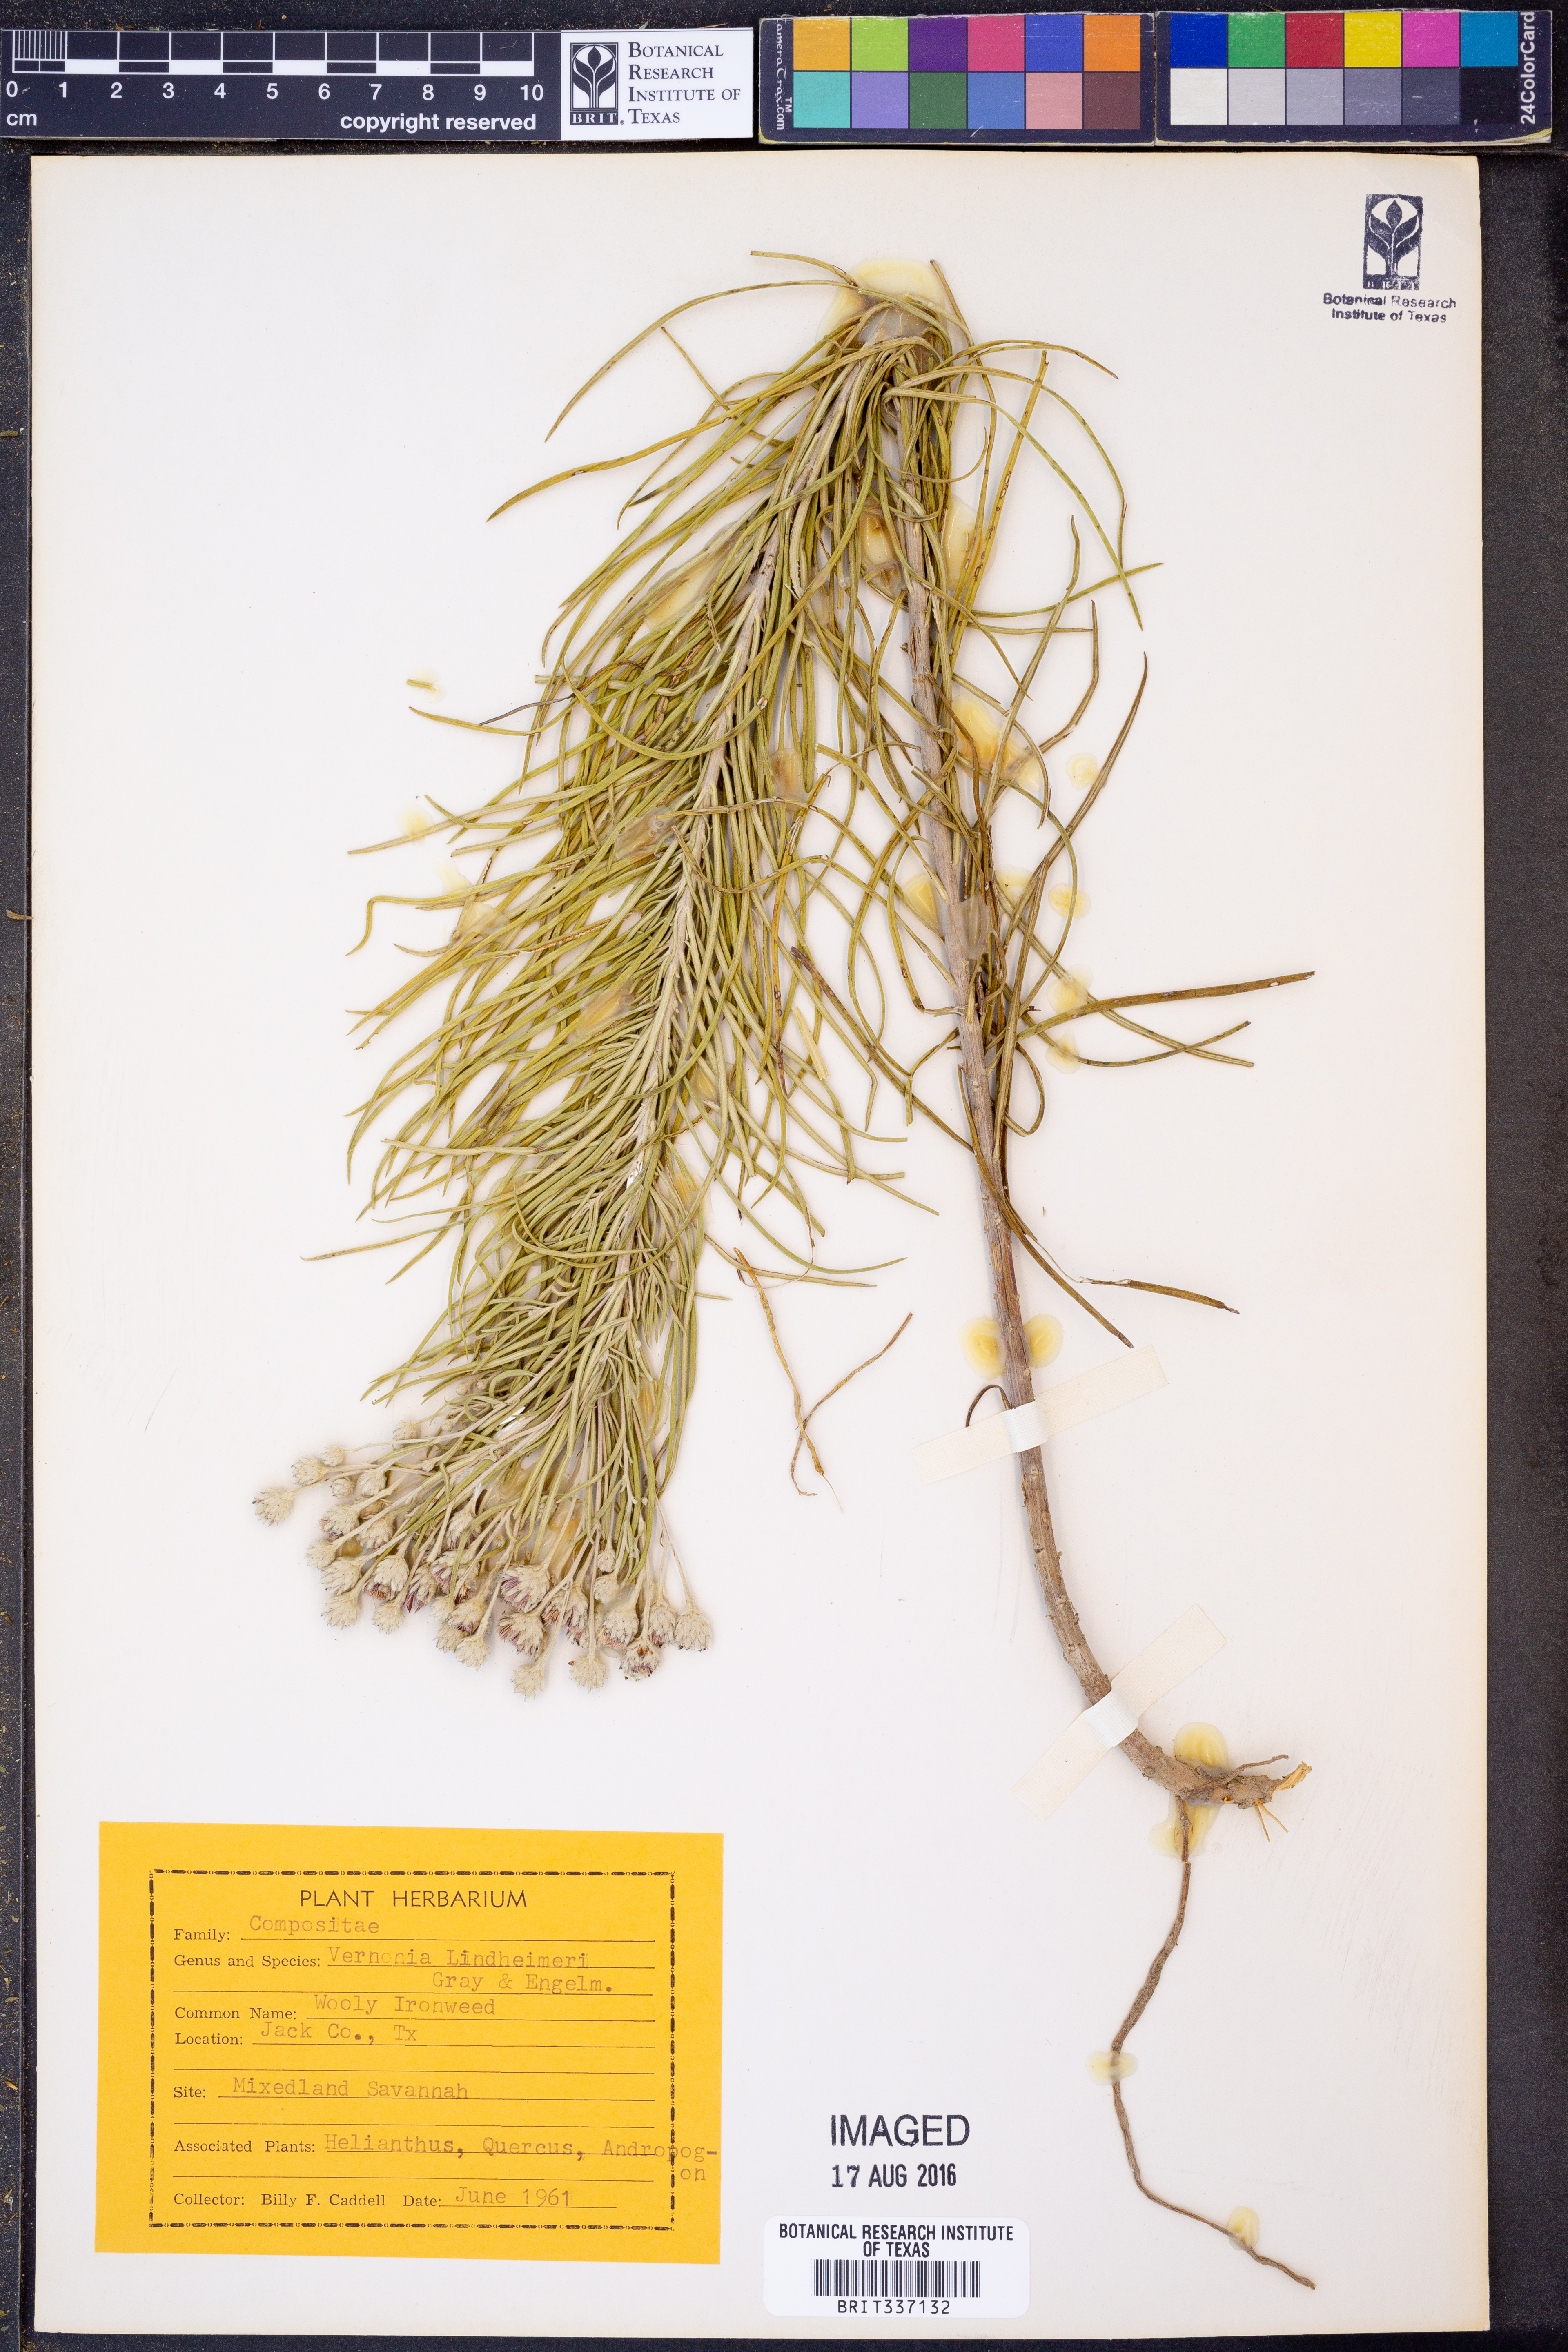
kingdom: Plantae
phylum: Tracheophyta
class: Magnoliopsida
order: Asterales
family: Asteraceae
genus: Vernonia
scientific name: Vernonia lindheimeri
